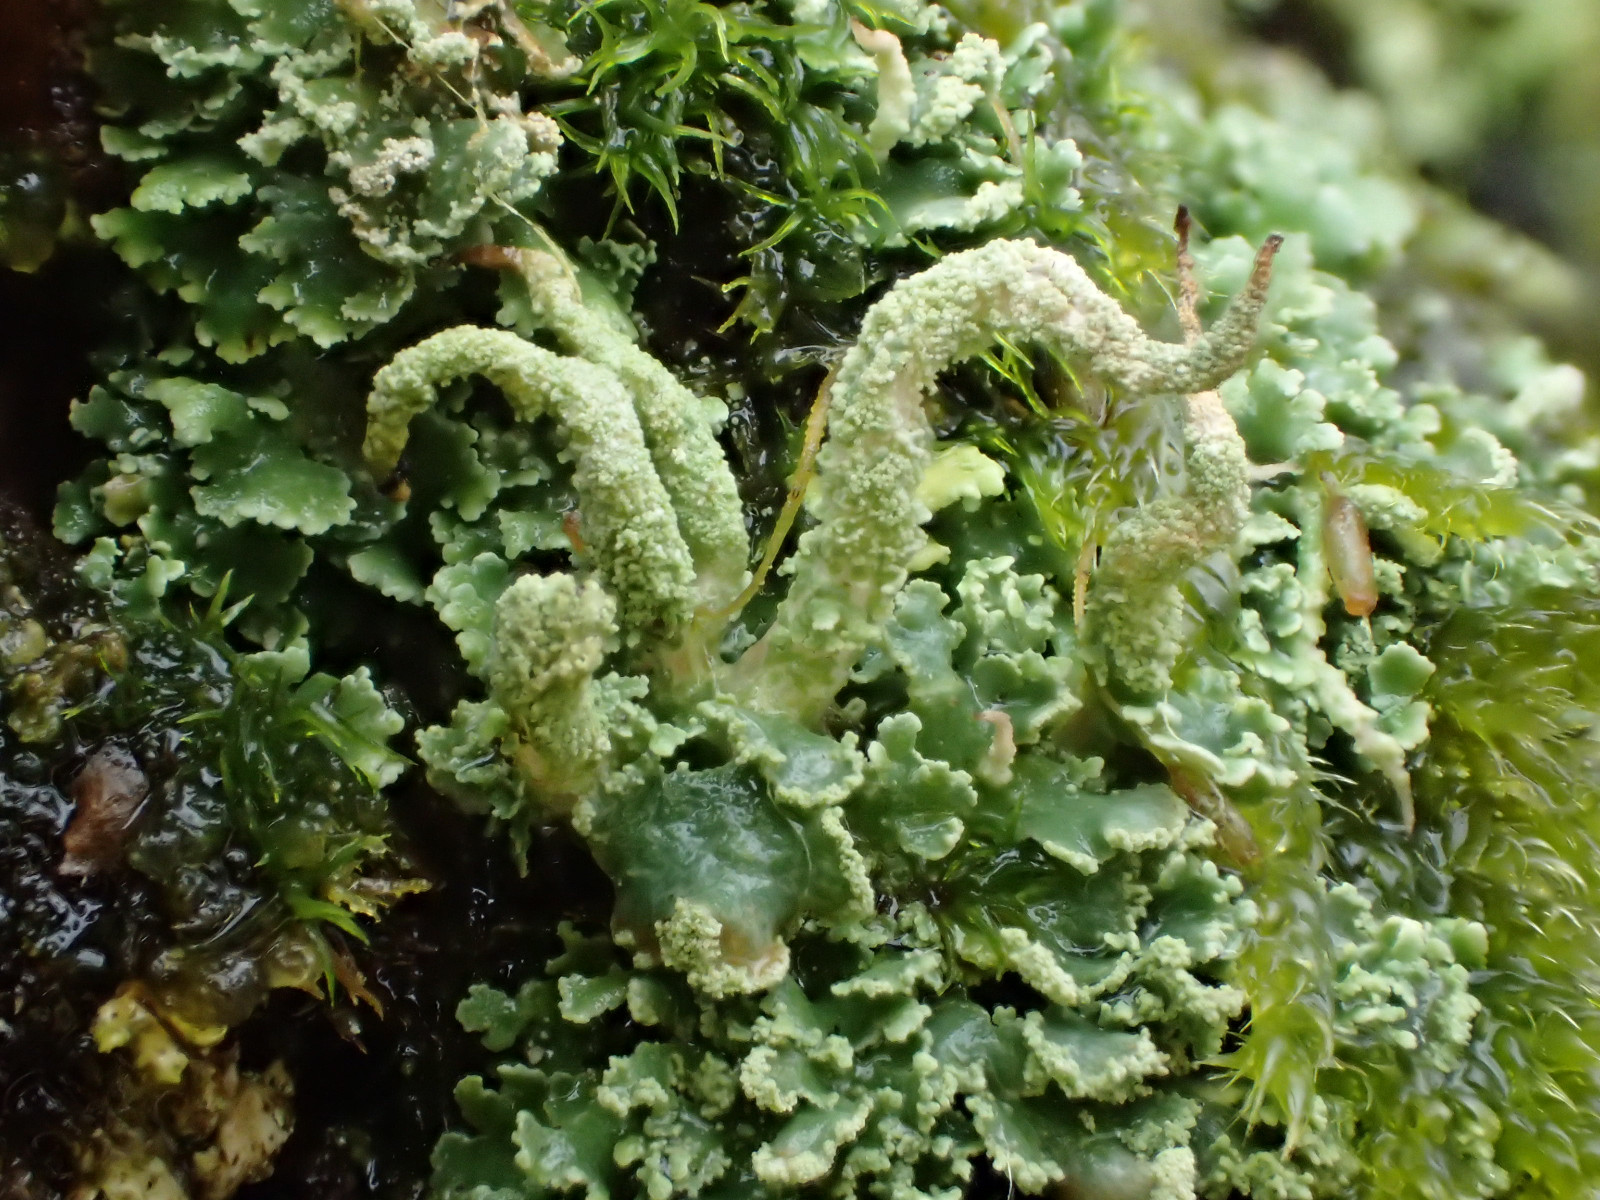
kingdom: Fungi
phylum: Ascomycota
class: Lecanoromycetes
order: Lecanorales
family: Cladoniaceae
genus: Cladonia
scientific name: Cladonia coniocraea
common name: træfods-bægerlav
